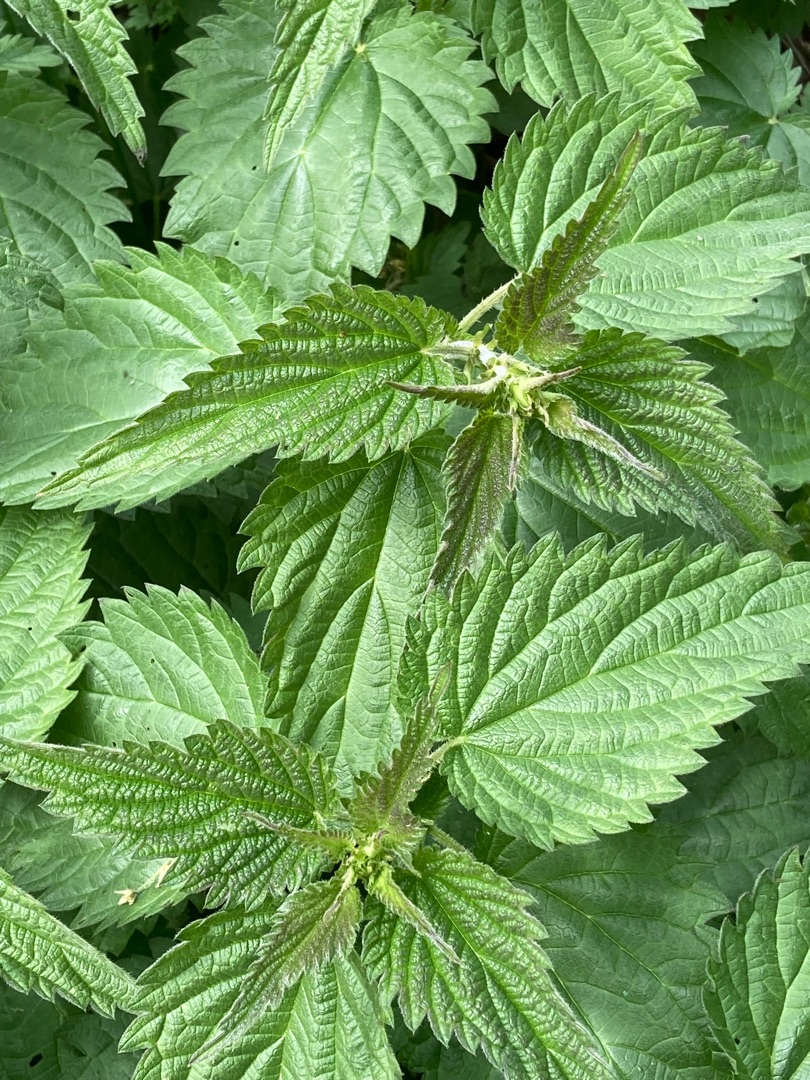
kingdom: Plantae
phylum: Tracheophyta
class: Magnoliopsida
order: Rosales
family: Urticaceae
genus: Urtica
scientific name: Urtica dioica
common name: Stor nælde
